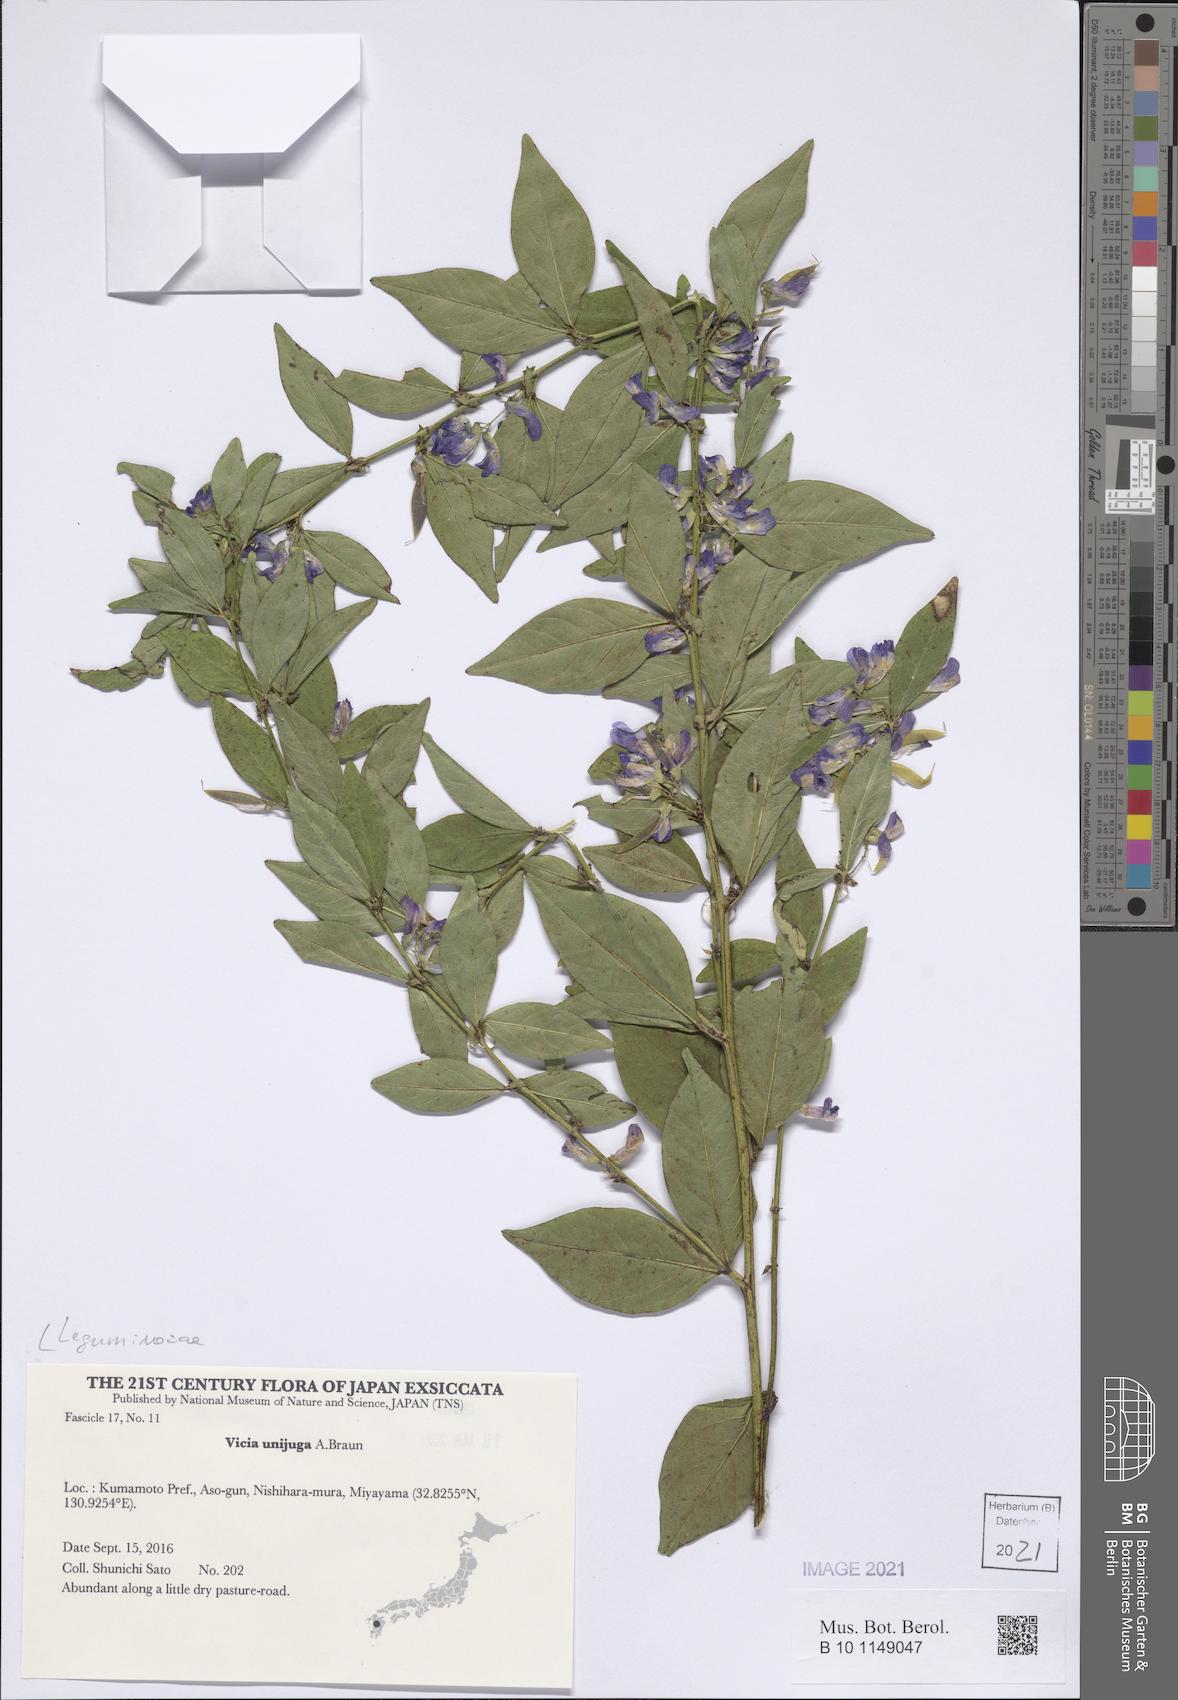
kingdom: Plantae
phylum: Tracheophyta
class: Magnoliopsida
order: Fabales
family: Fabaceae
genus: Vicia
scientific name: Vicia unijuga
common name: Two-leaf vetch
